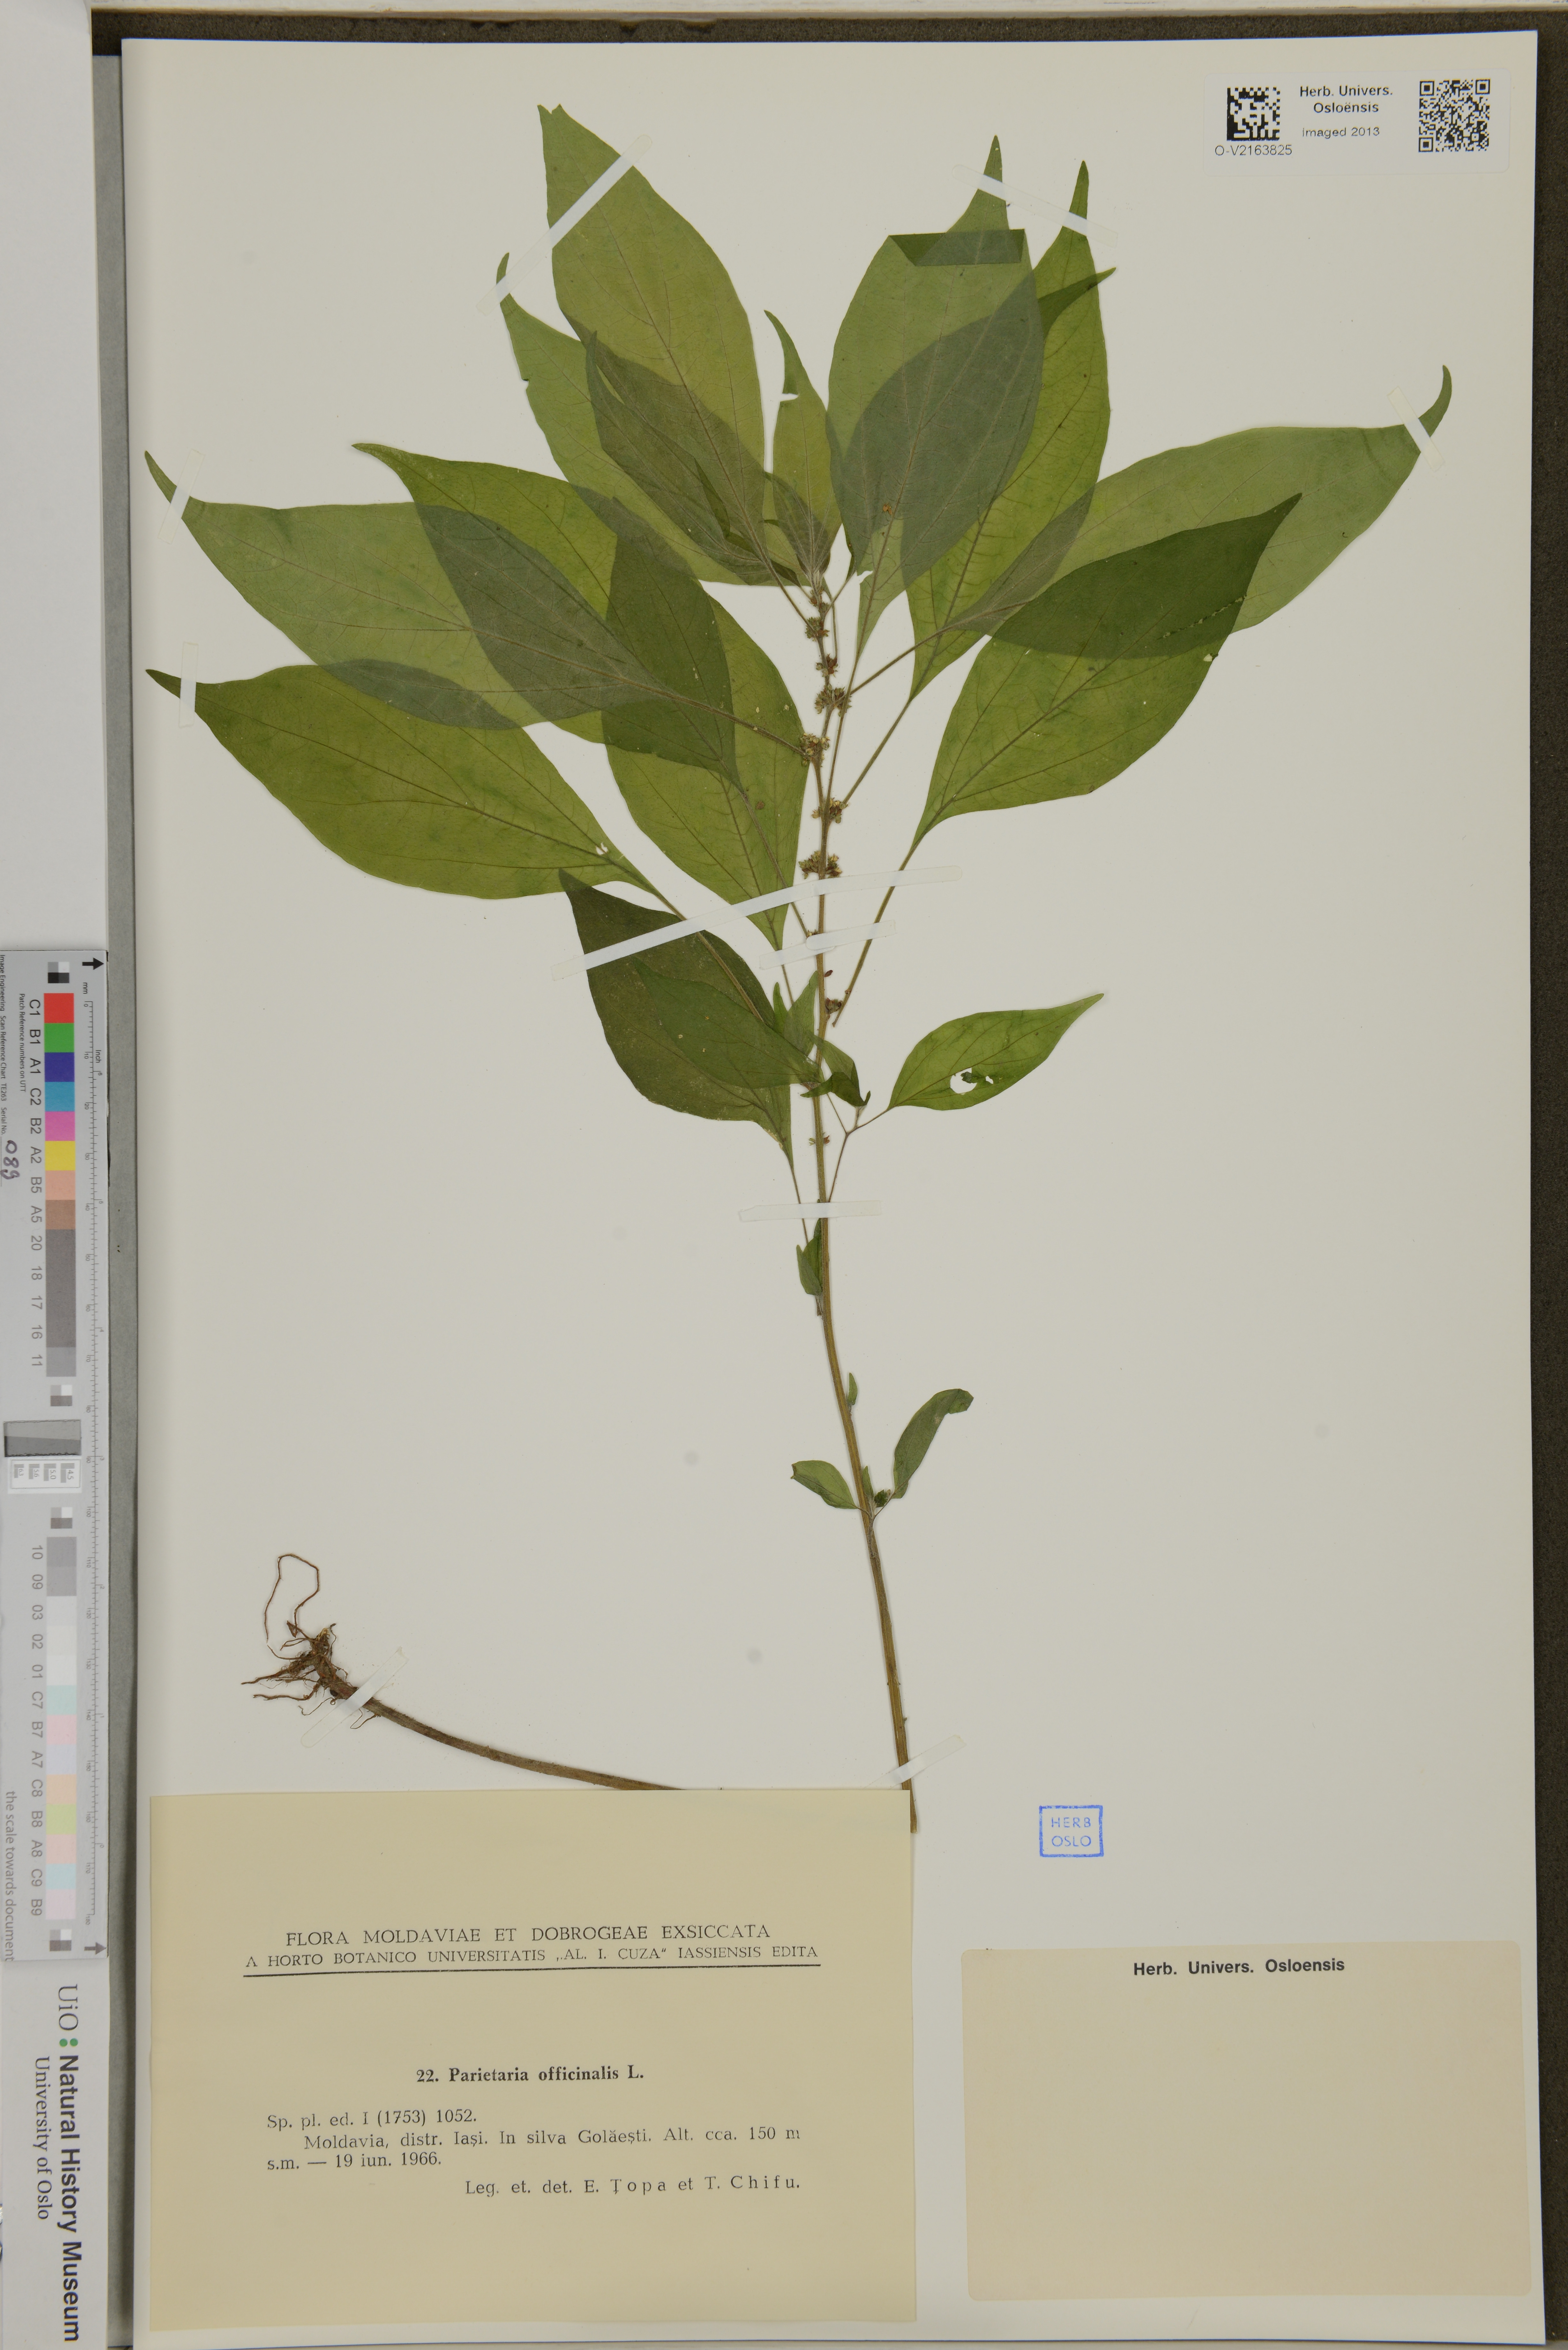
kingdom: Plantae
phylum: Tracheophyta
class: Magnoliopsida
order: Rosales
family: Urticaceae
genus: Parietaria
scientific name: Parietaria officinalis
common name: Eastern pellitory-of-the-wall
